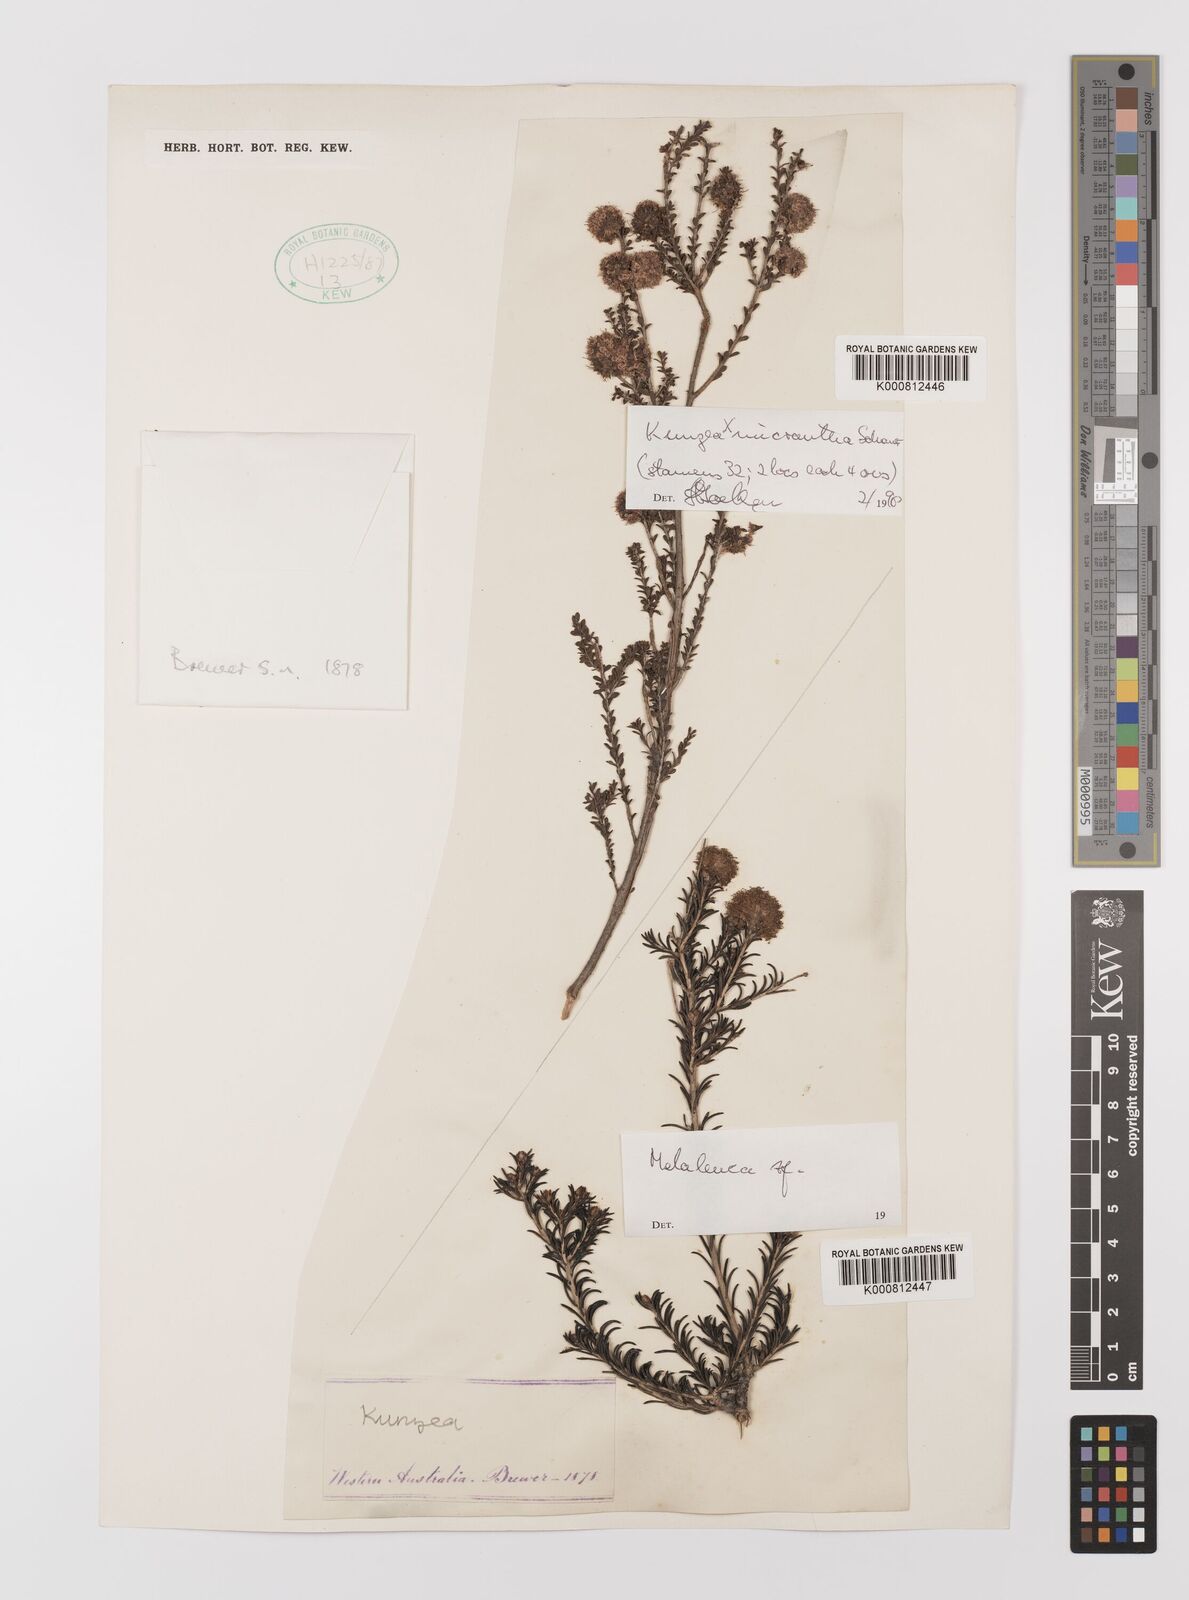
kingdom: Plantae
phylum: Tracheophyta
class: Magnoliopsida
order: Myrtales
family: Myrtaceae
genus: Melaleuca
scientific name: Melaleuca
